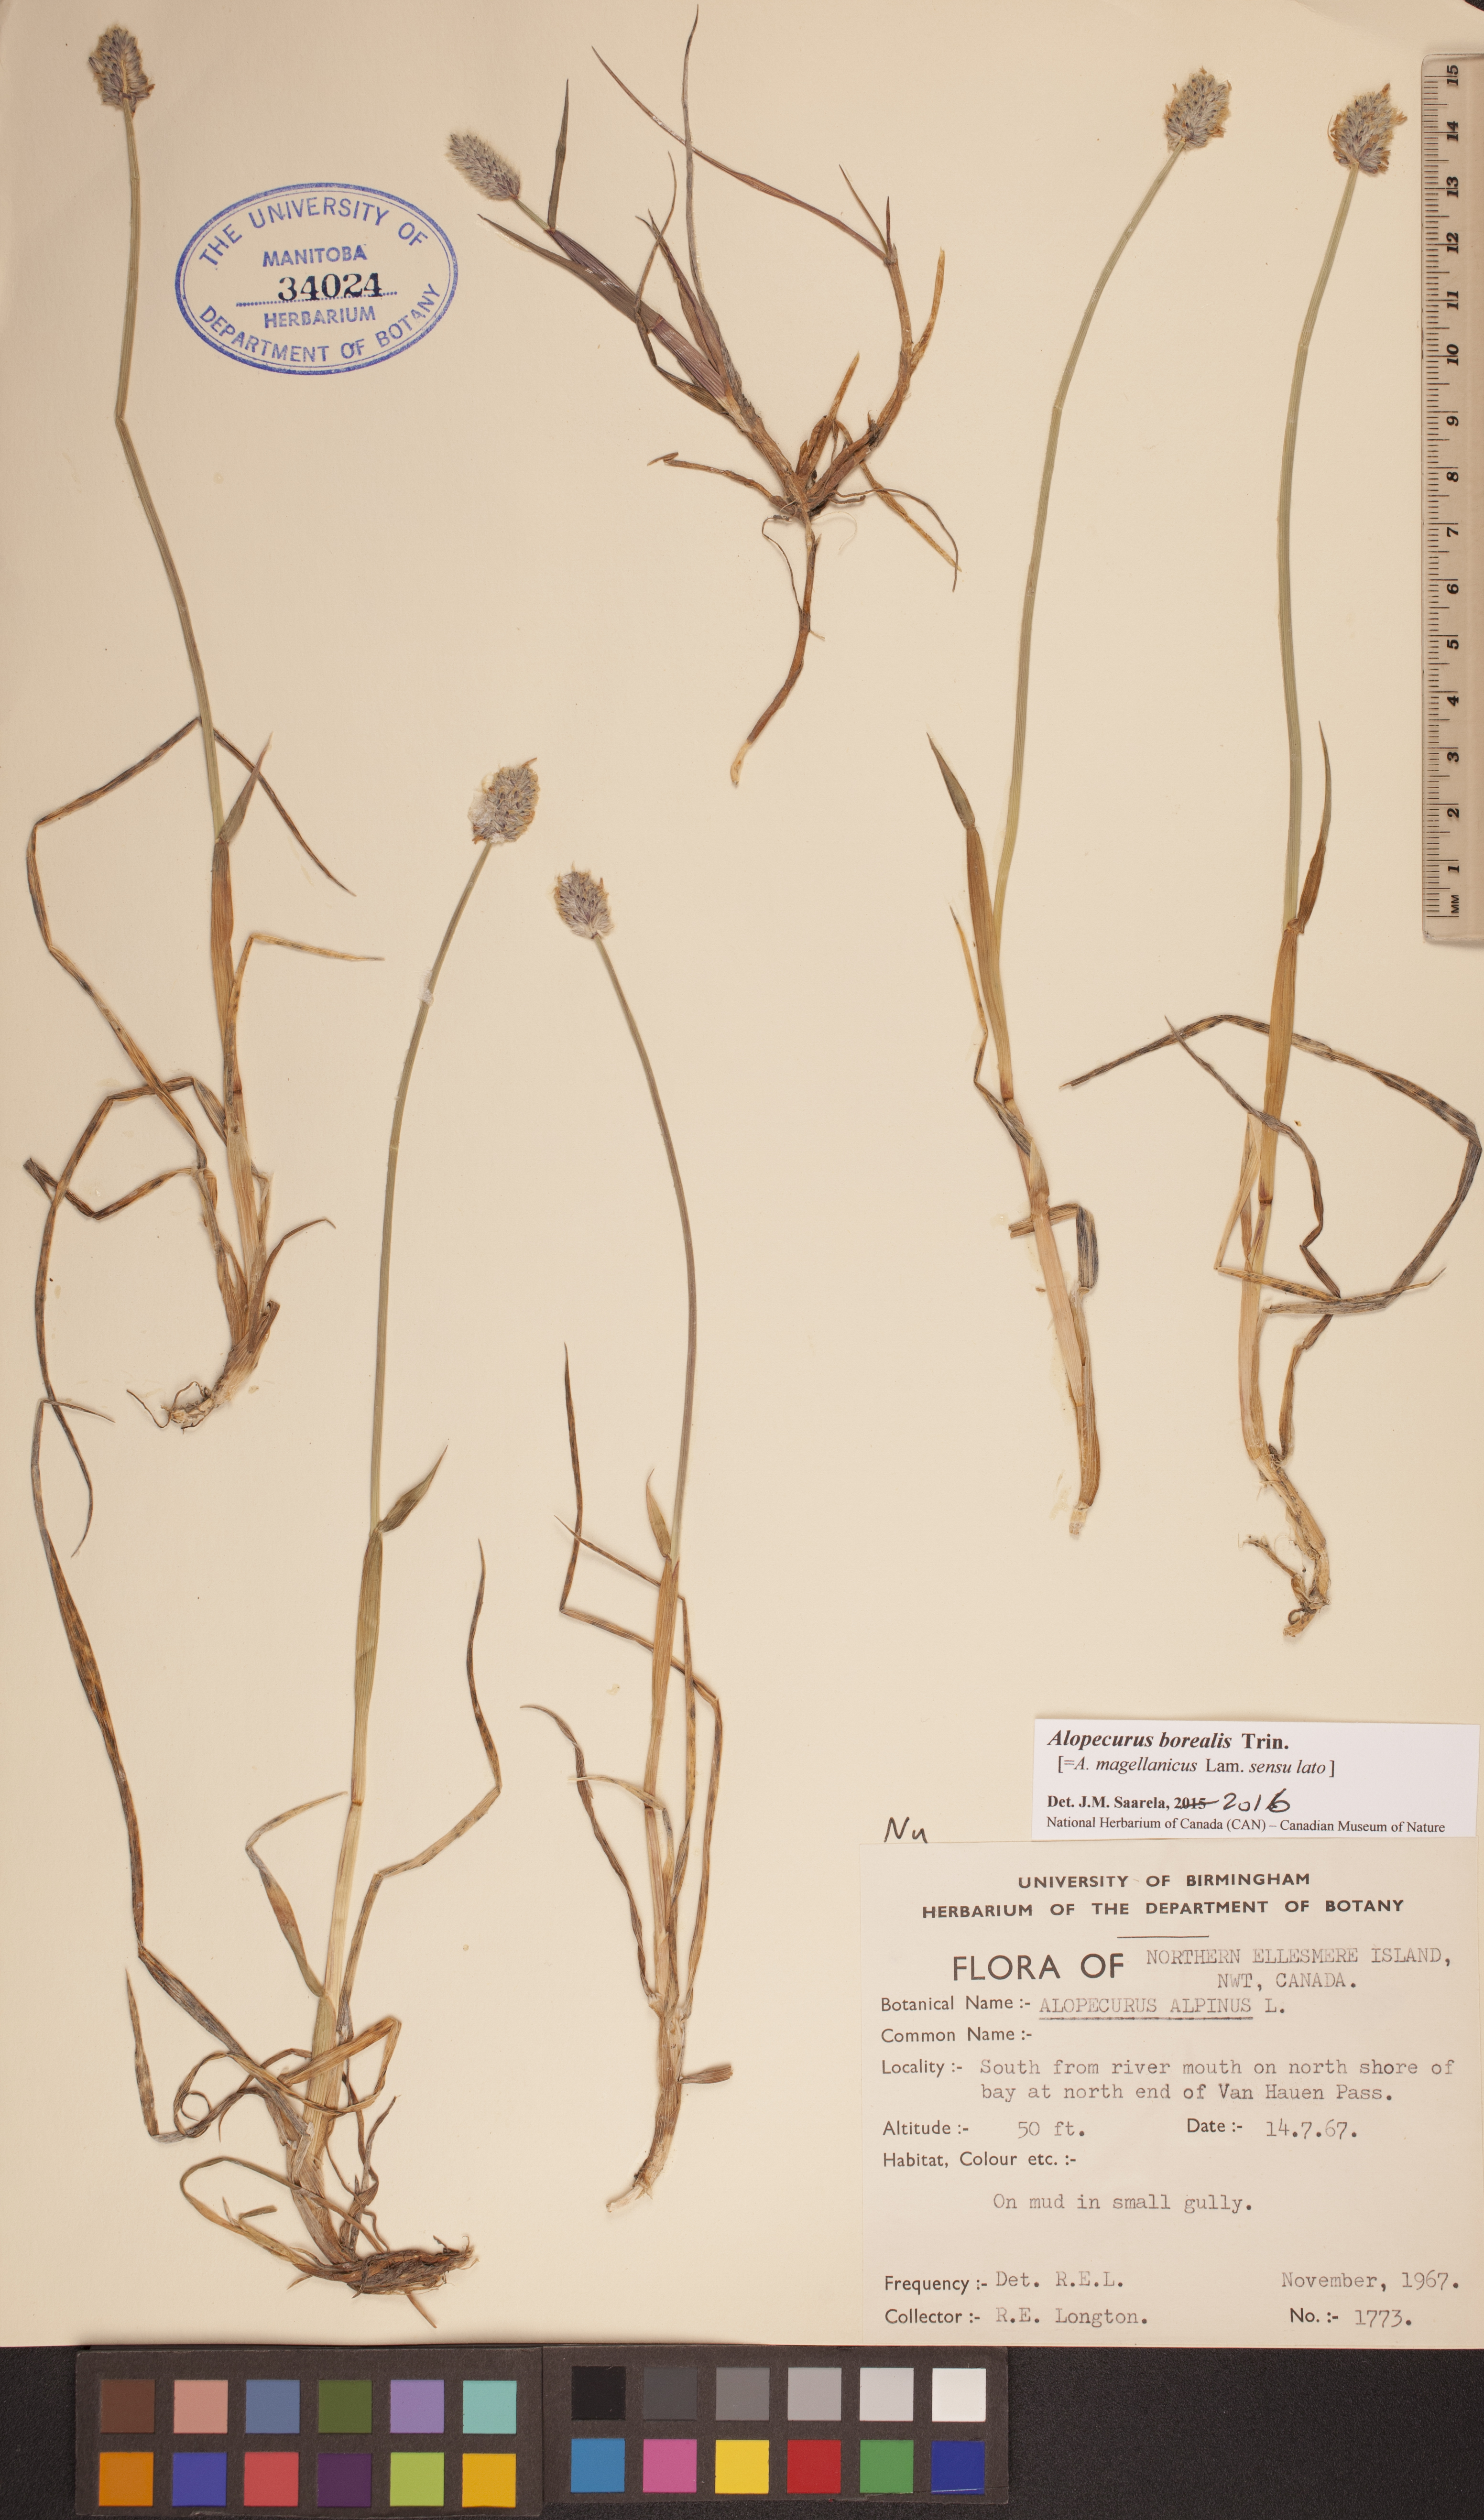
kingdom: Plantae
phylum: Tracheophyta
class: Liliopsida
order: Poales
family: Poaceae
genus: Alopecurus
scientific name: Alopecurus magellanicus
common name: Alpine foxtail
